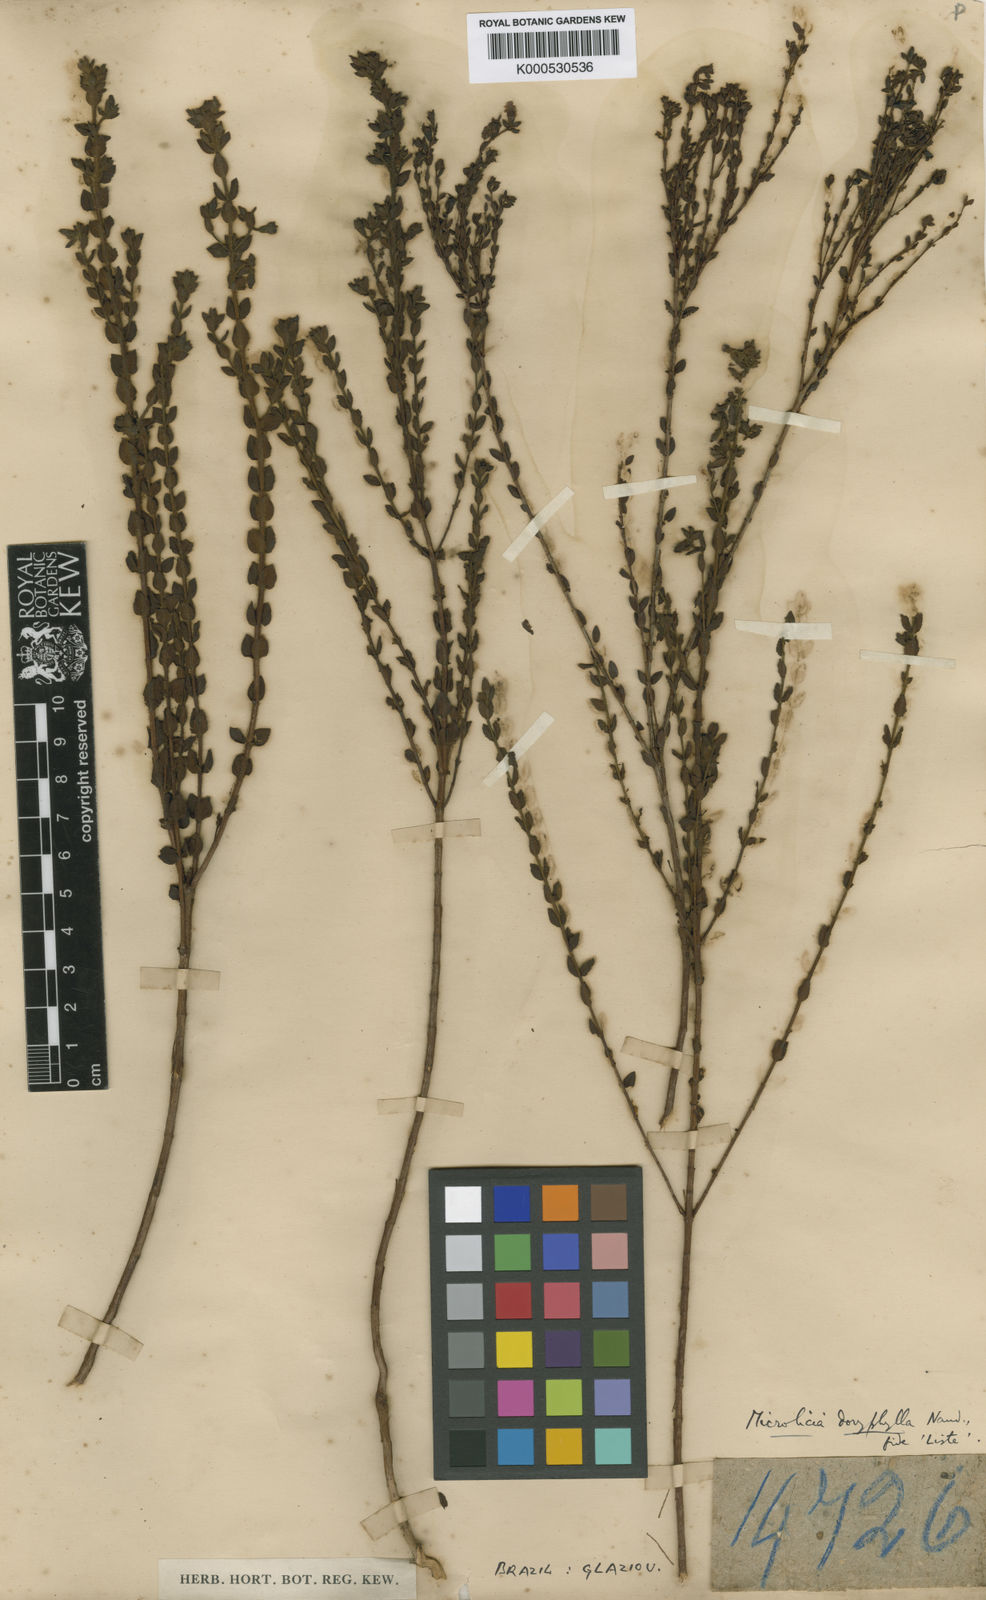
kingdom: Plantae
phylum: Tracheophyta
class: Magnoliopsida
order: Myrtales
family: Melastomataceae
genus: Microlicia
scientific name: Microlicia doryphylla
